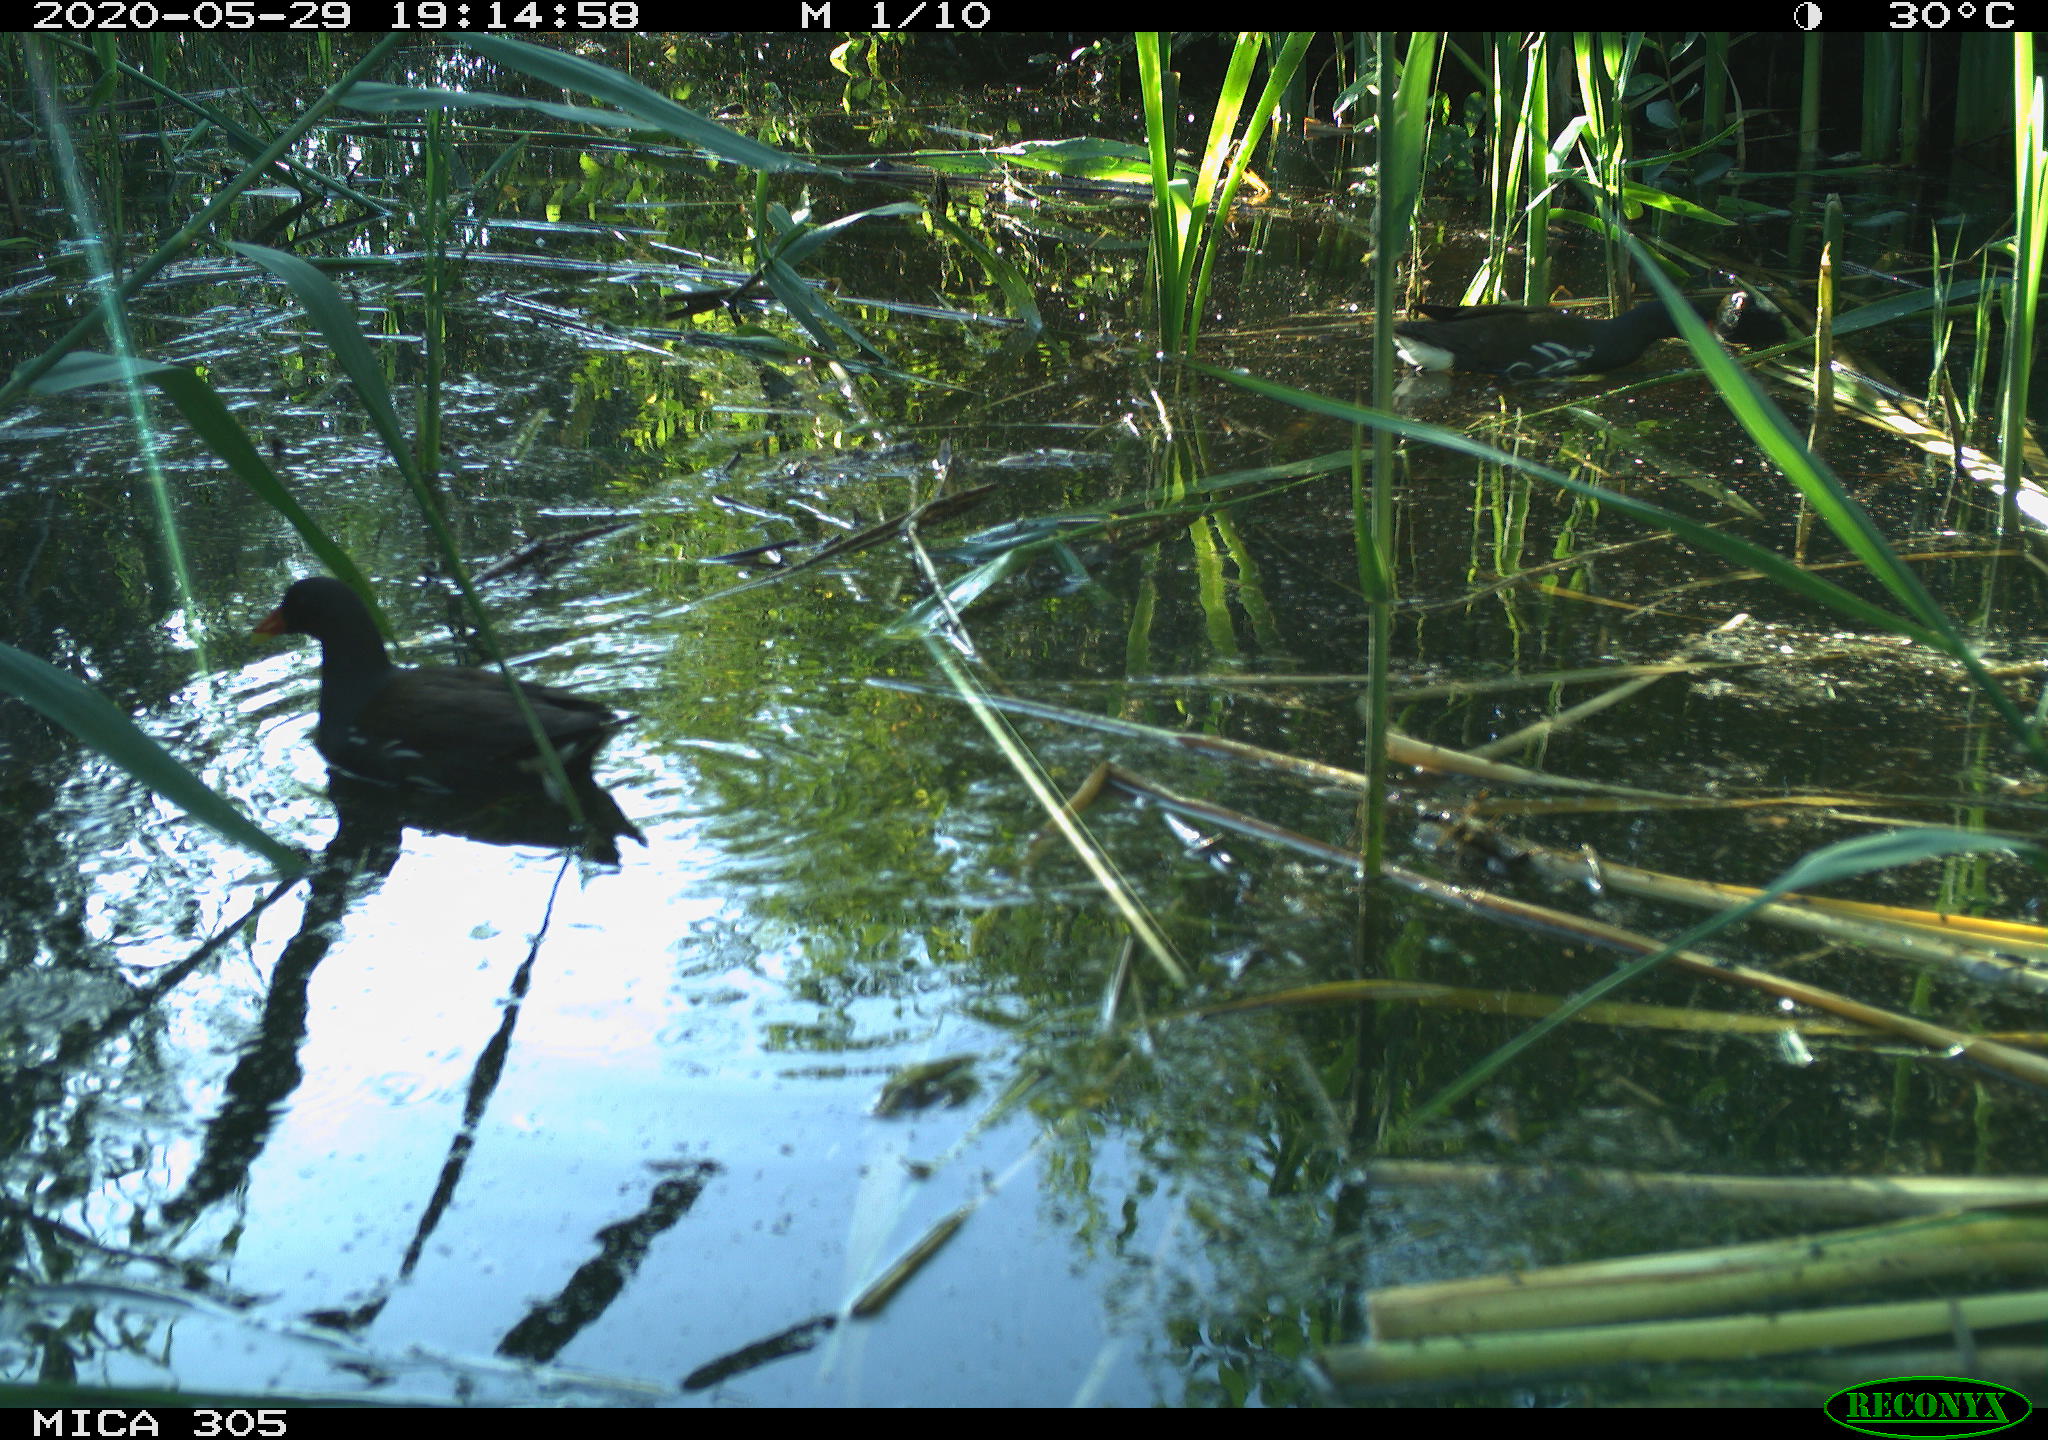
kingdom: Animalia
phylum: Chordata
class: Aves
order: Gruiformes
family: Rallidae
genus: Gallinula
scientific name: Gallinula chloropus
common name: Common moorhen
